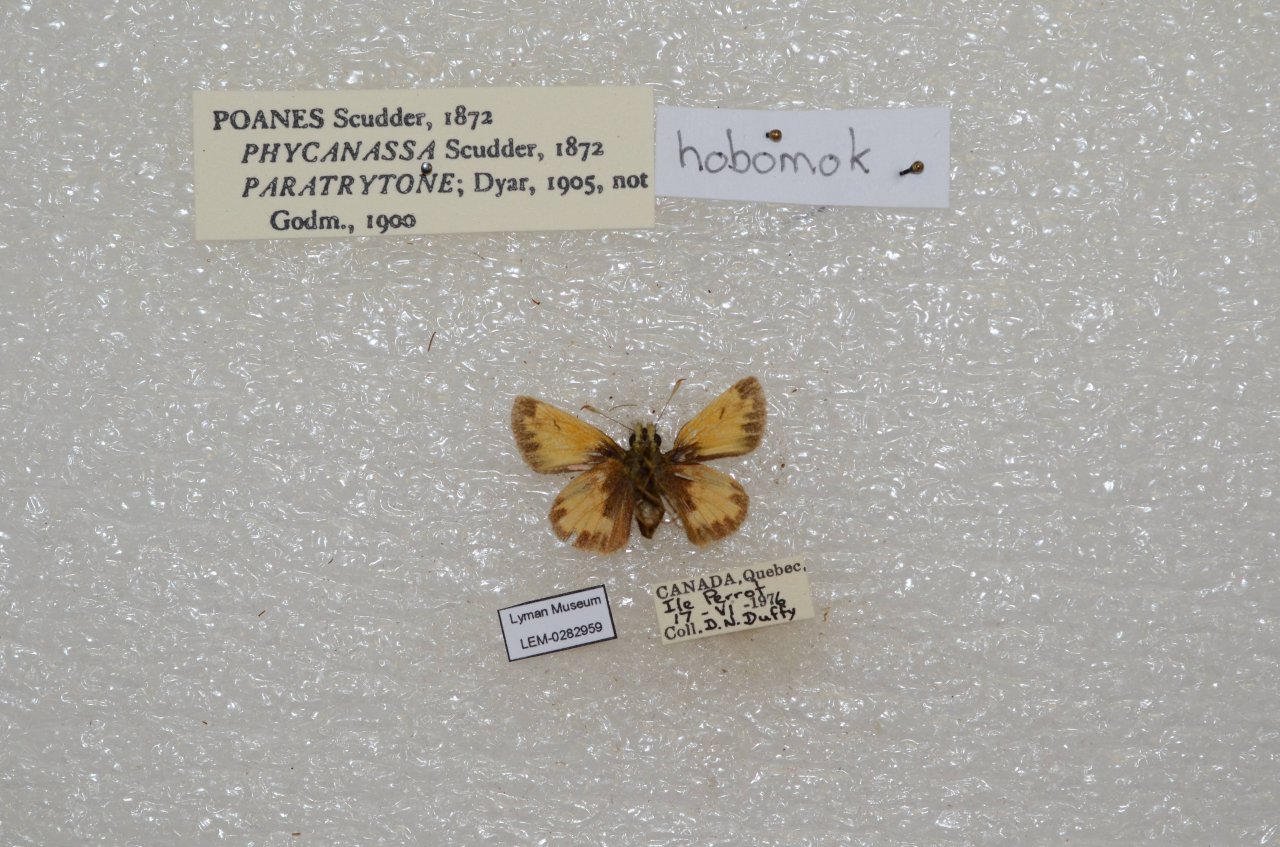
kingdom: Animalia
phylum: Arthropoda
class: Insecta
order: Lepidoptera
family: Hesperiidae
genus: Lon
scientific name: Lon hobomok
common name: Hobomok Skipper
